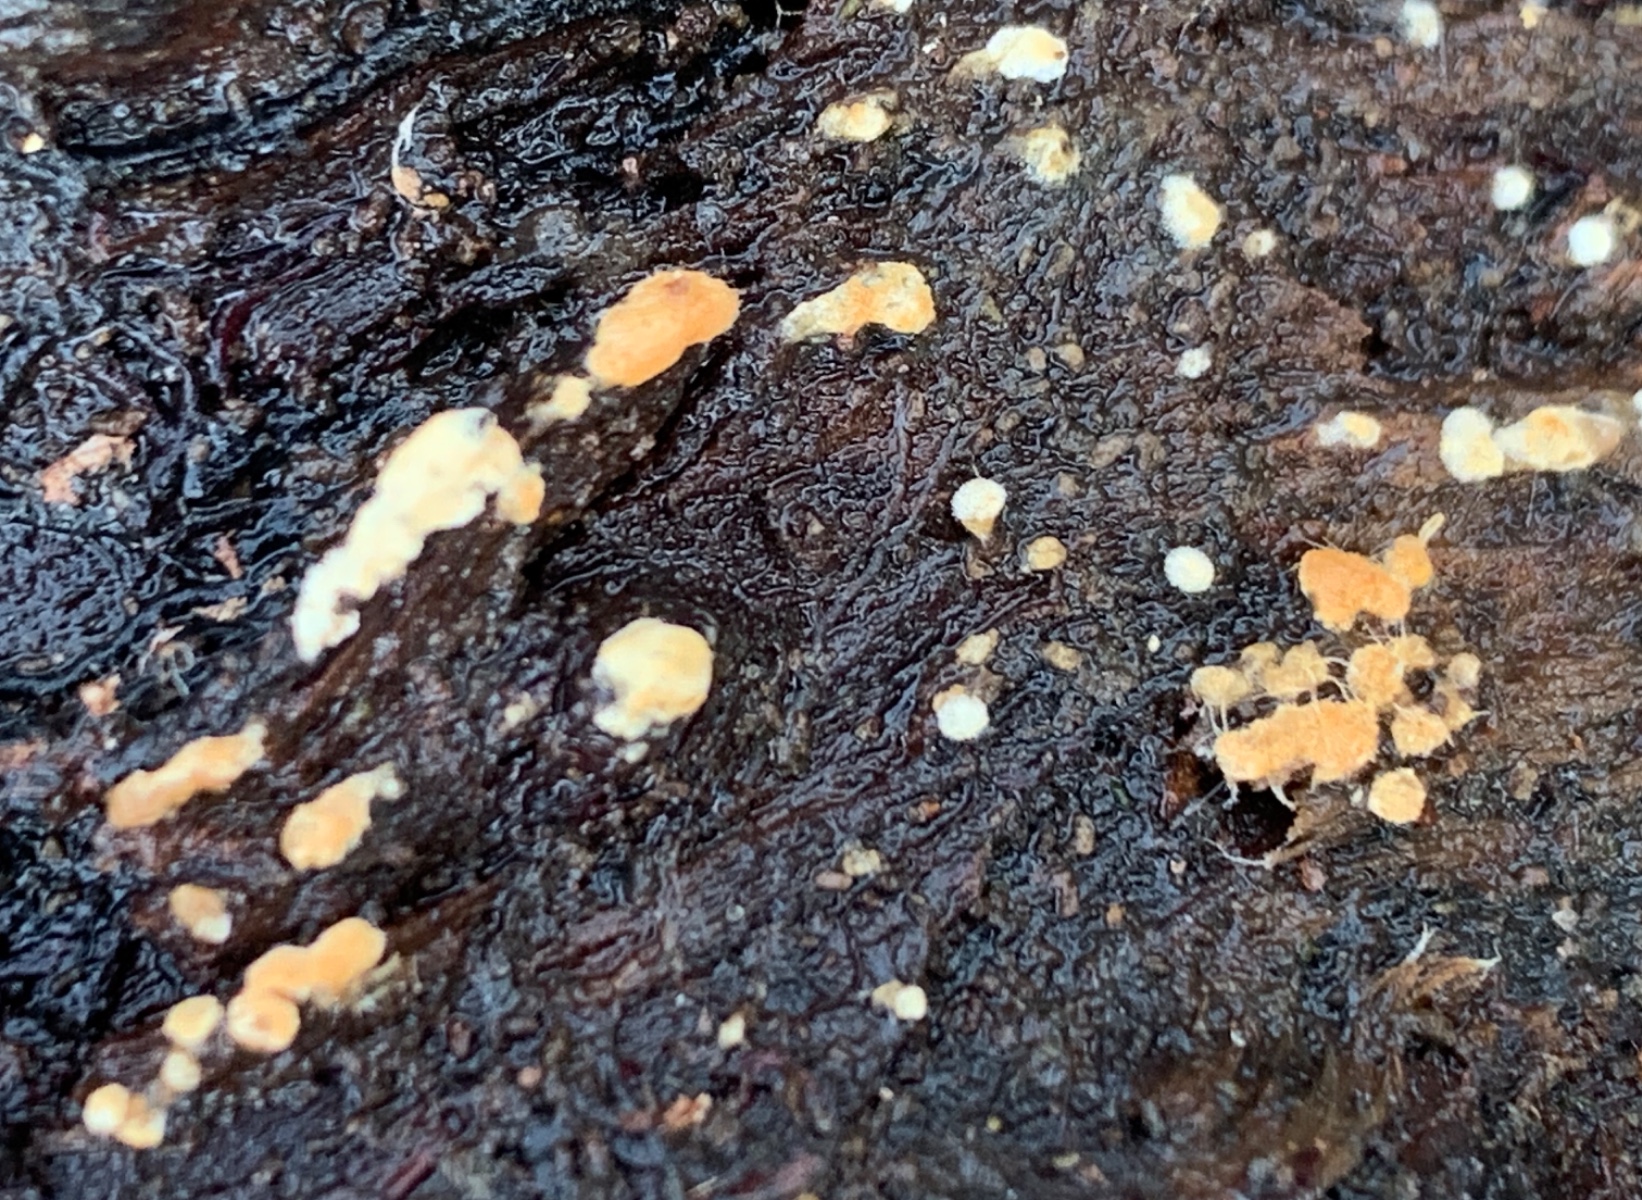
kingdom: Fungi
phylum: Basidiomycota
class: Agaricomycetes
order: Cantharellales
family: Botryobasidiaceae
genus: Botryobasidium
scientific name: Botryobasidium aureum
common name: gylden spindhinde
